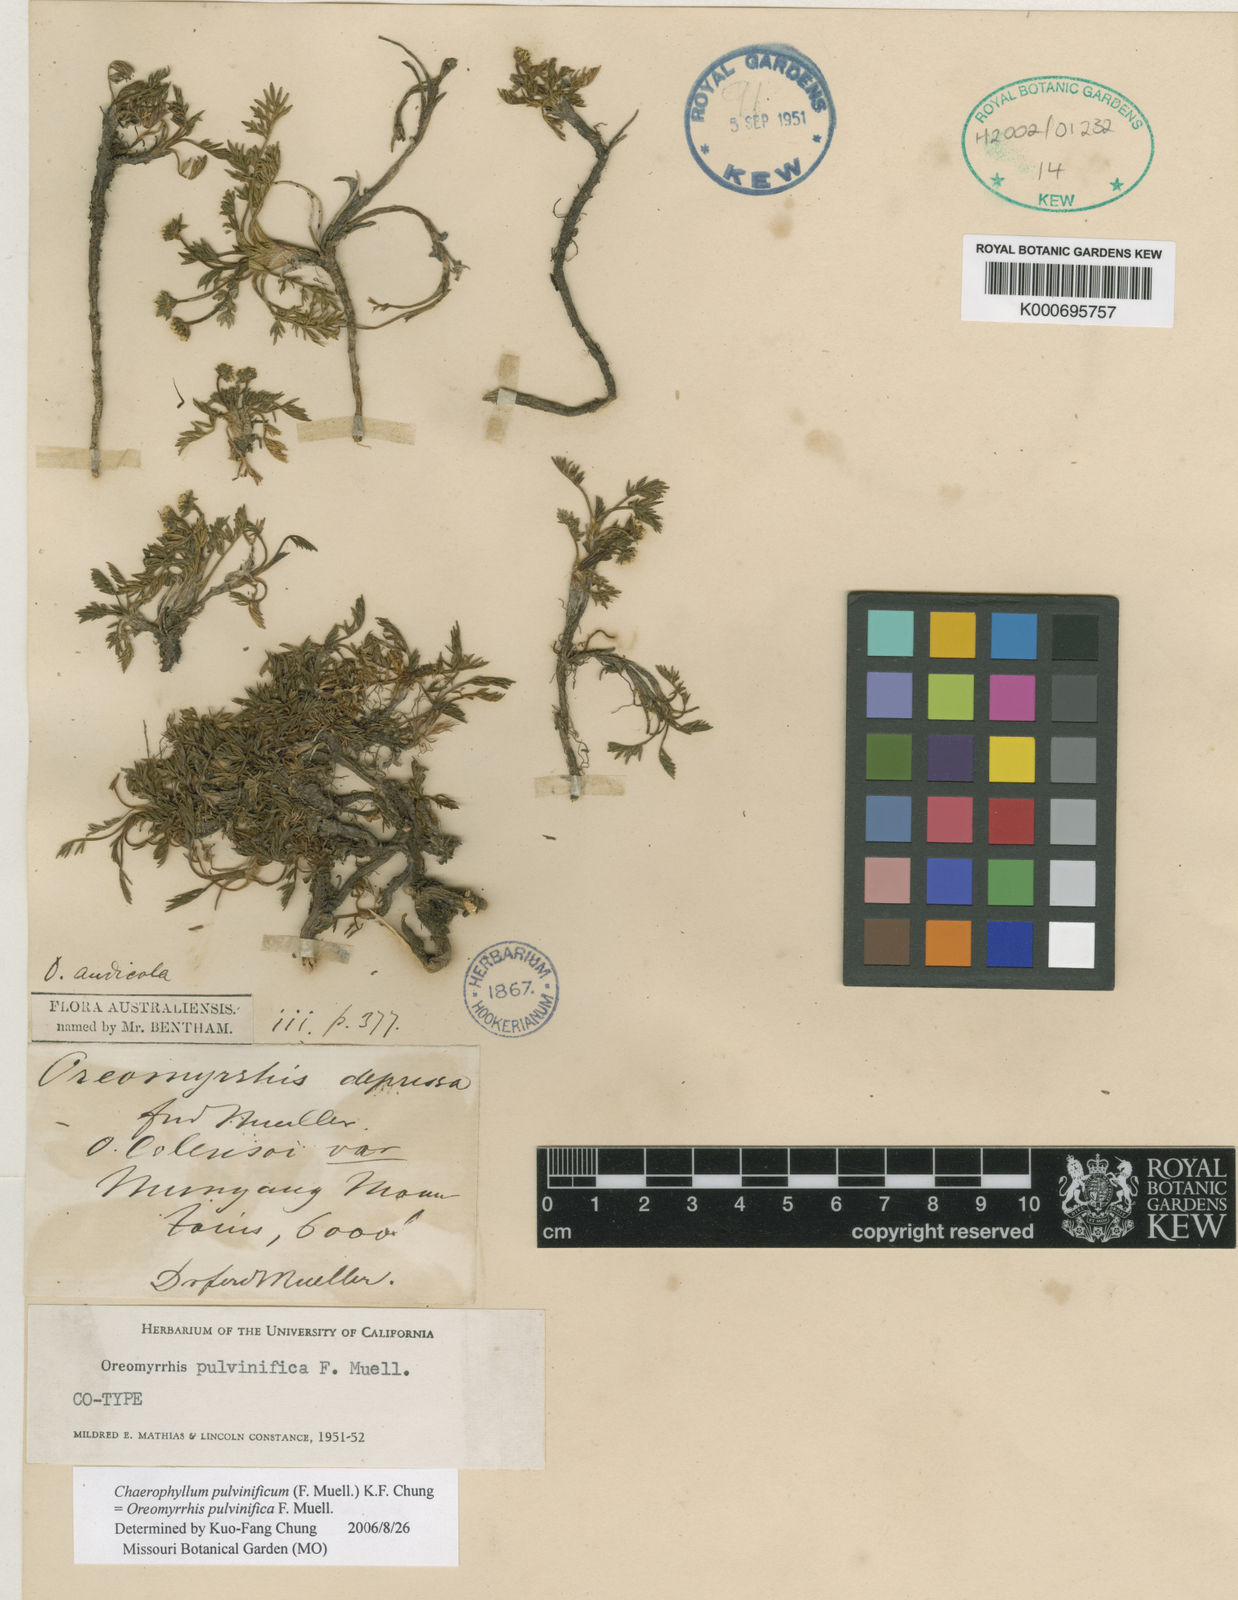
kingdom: Plantae
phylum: Tracheophyta
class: Magnoliopsida
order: Apiales
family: Apiaceae
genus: Chaerophyllum
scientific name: Chaerophyllum pulvinificum
